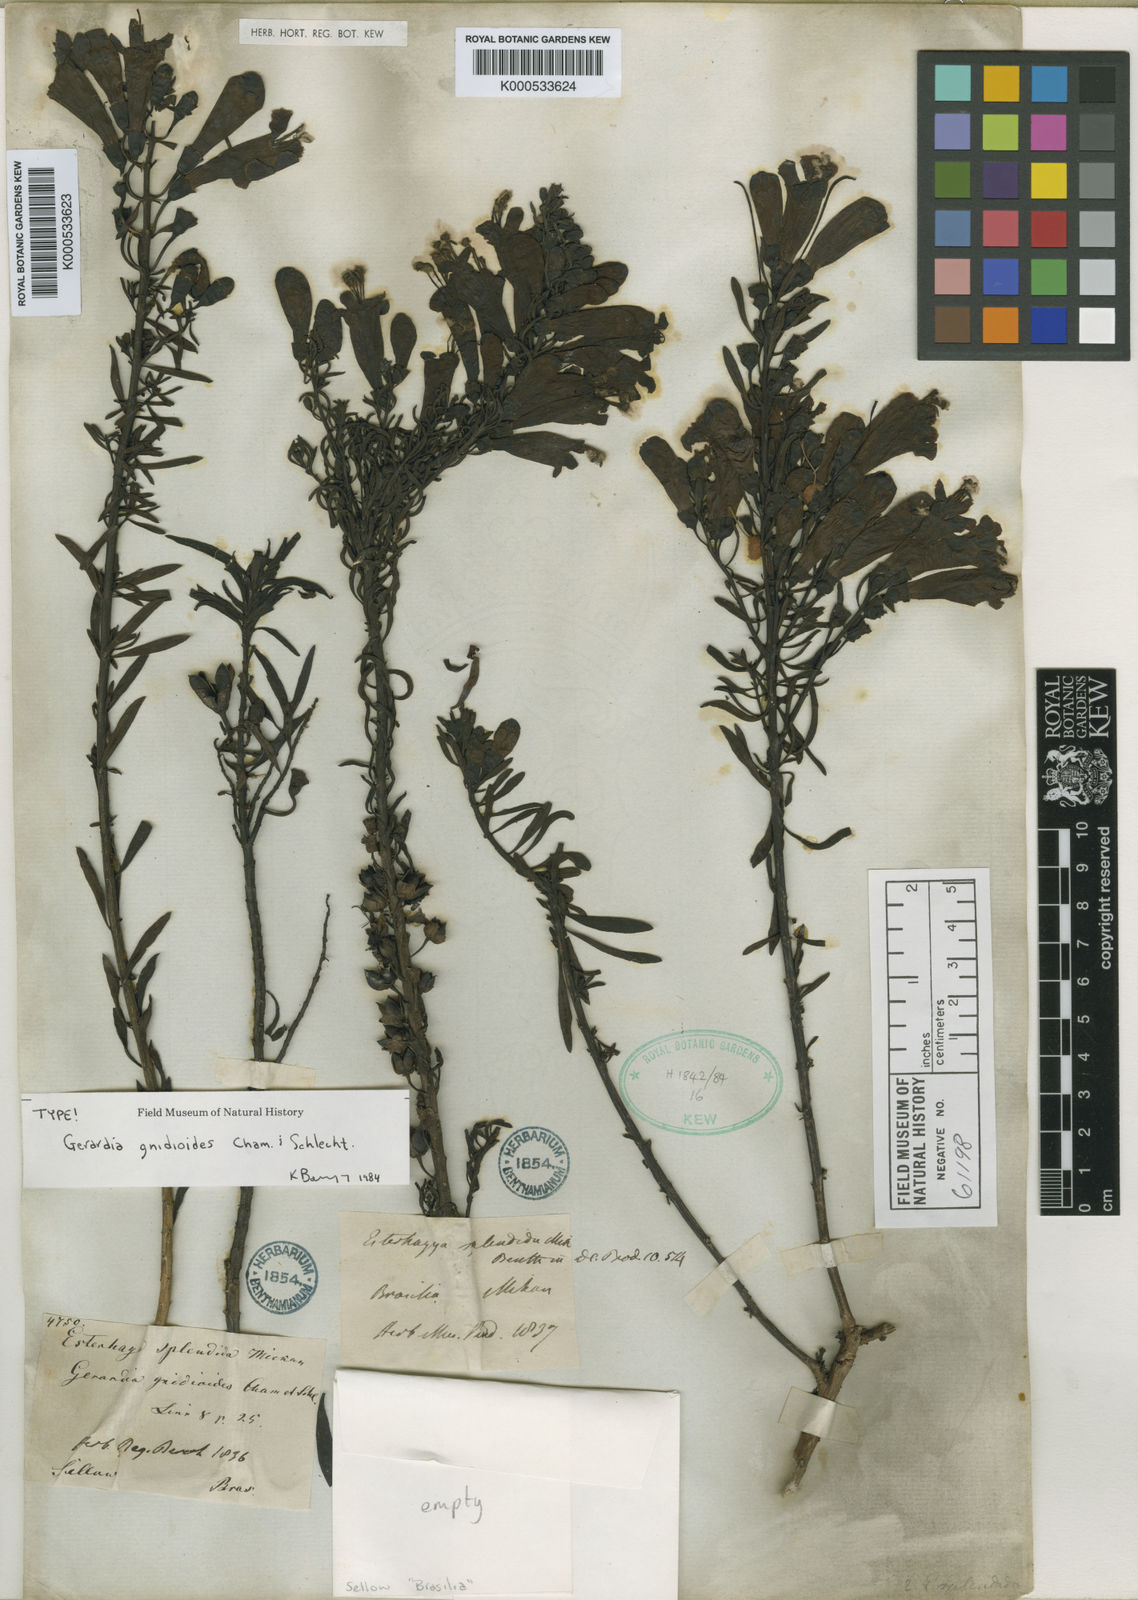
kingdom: Plantae
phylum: Tracheophyta
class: Magnoliopsida
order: Lamiales
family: Orobanchaceae
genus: Agalinis
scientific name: Agalinis
